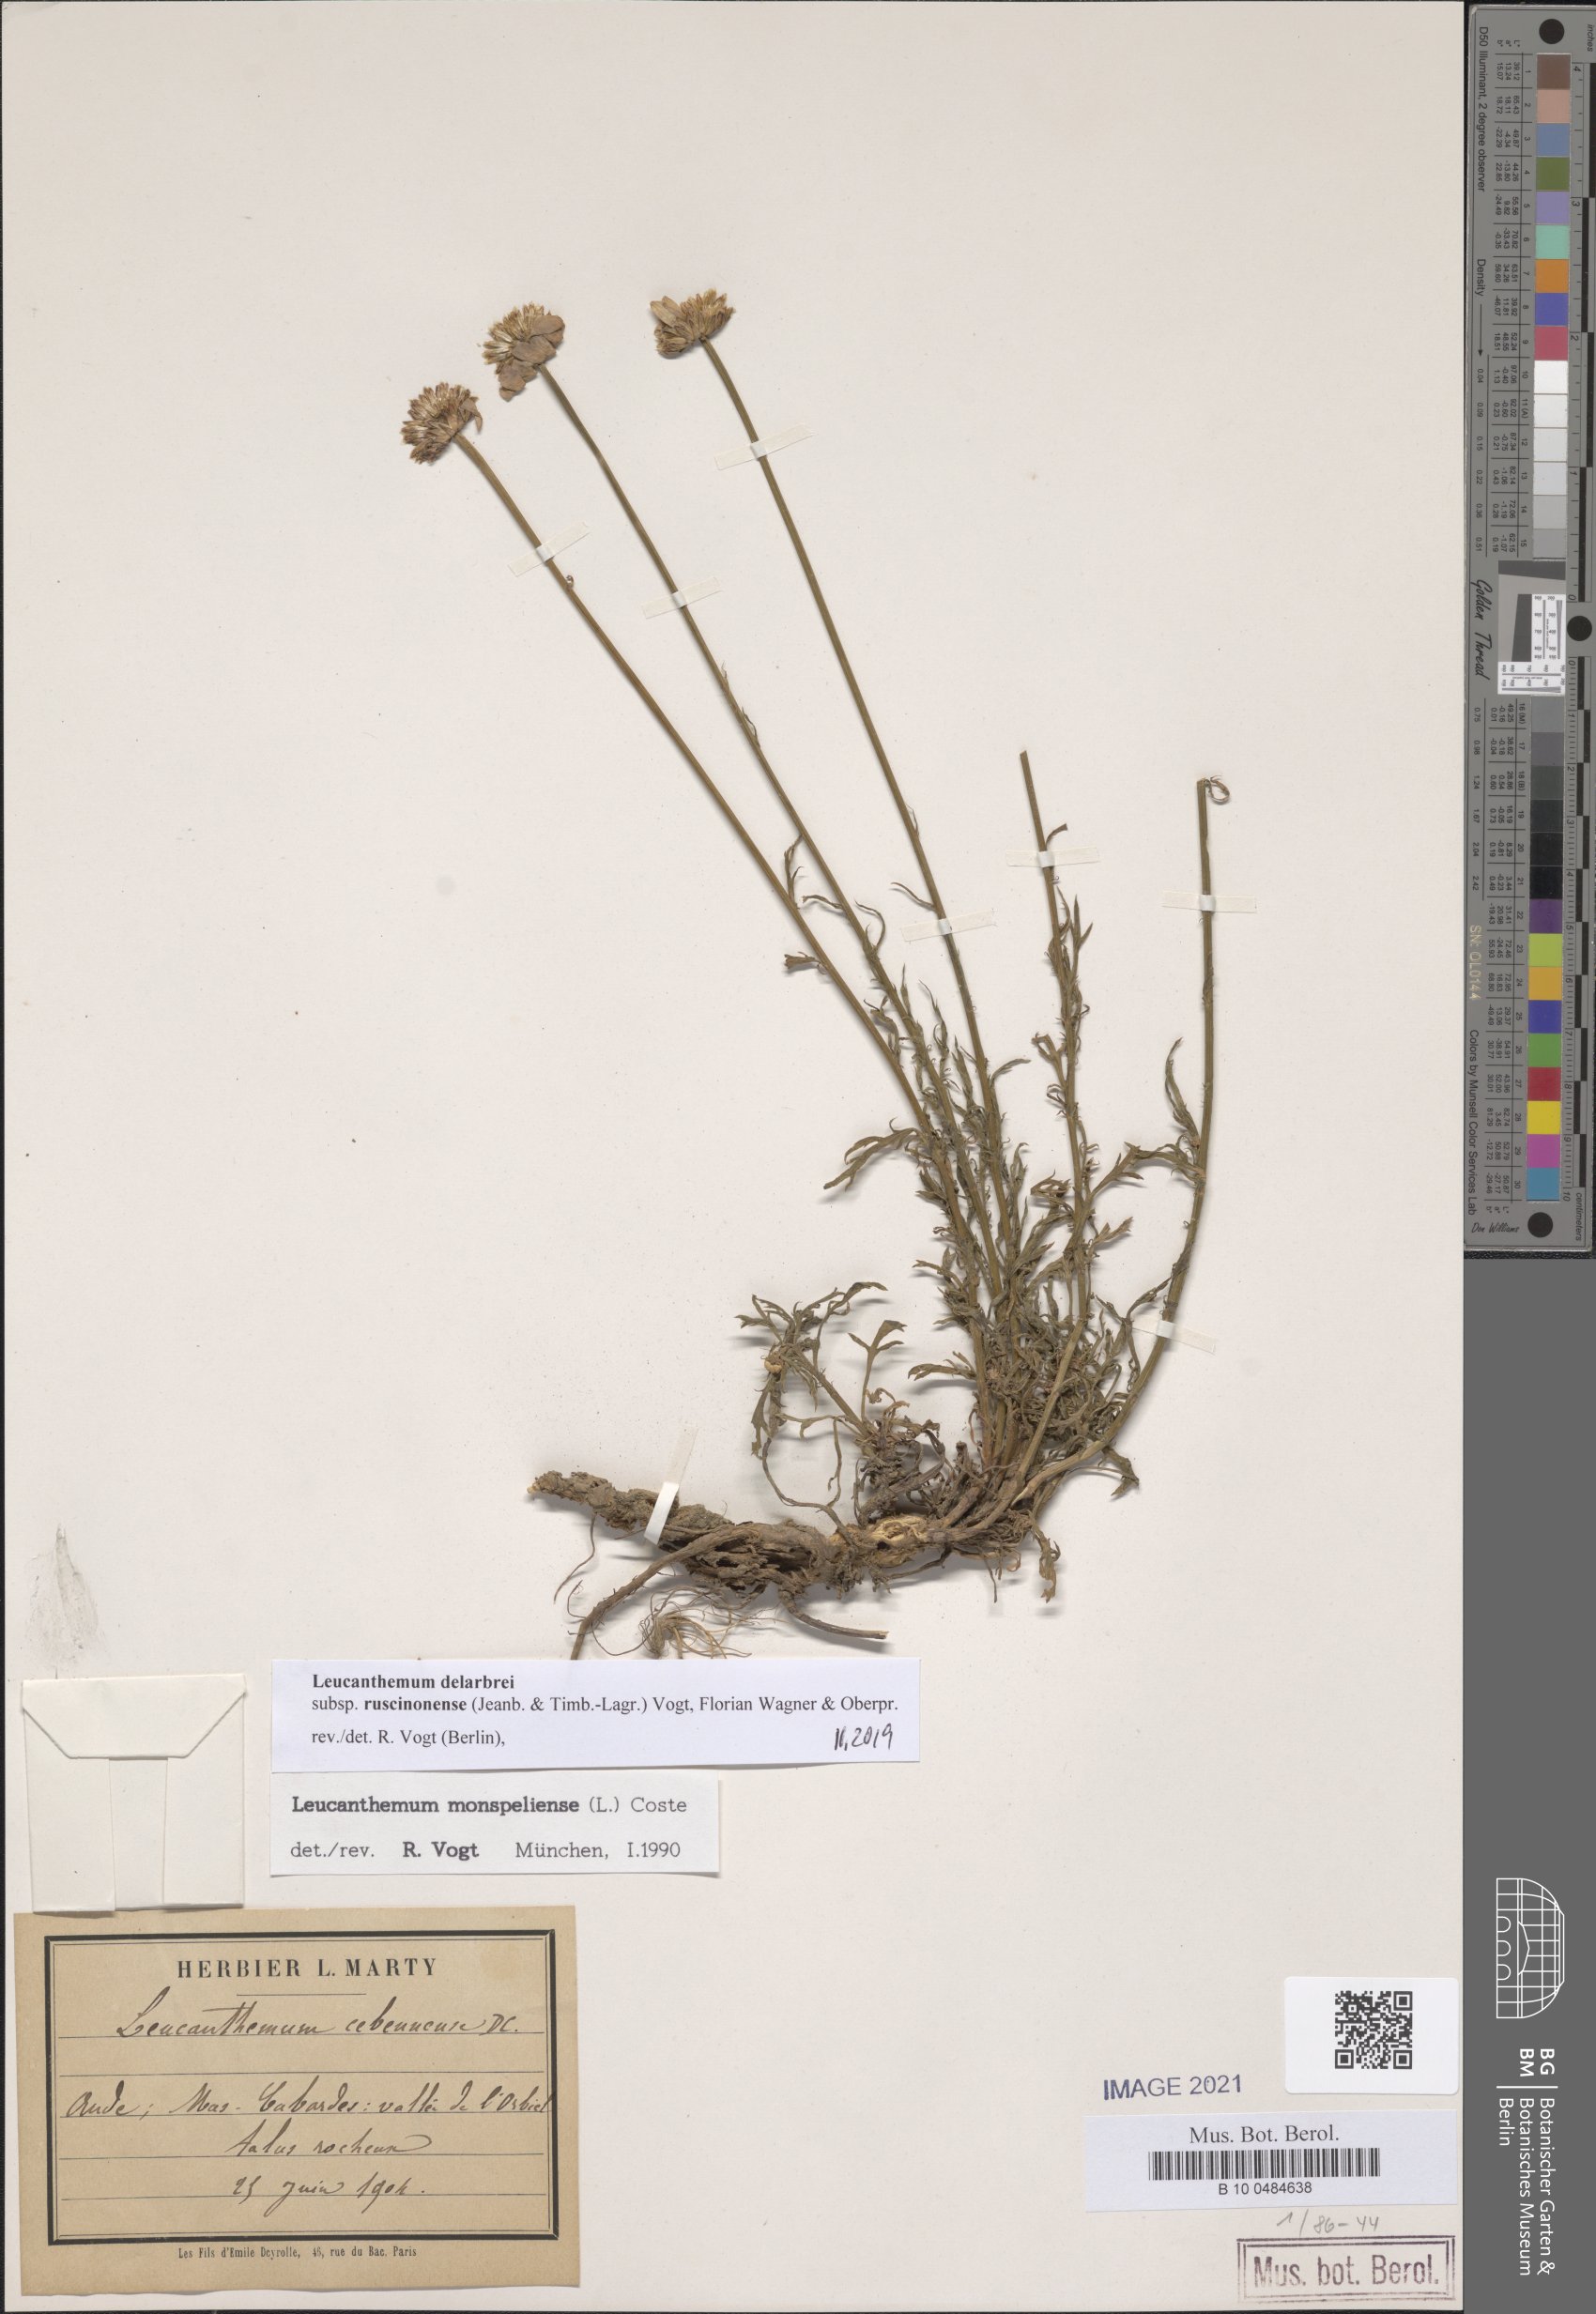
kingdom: Plantae
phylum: Tracheophyta
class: Magnoliopsida
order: Asterales
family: Asteraceae
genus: Leucanthemum
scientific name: Leucanthemum delarbrei
